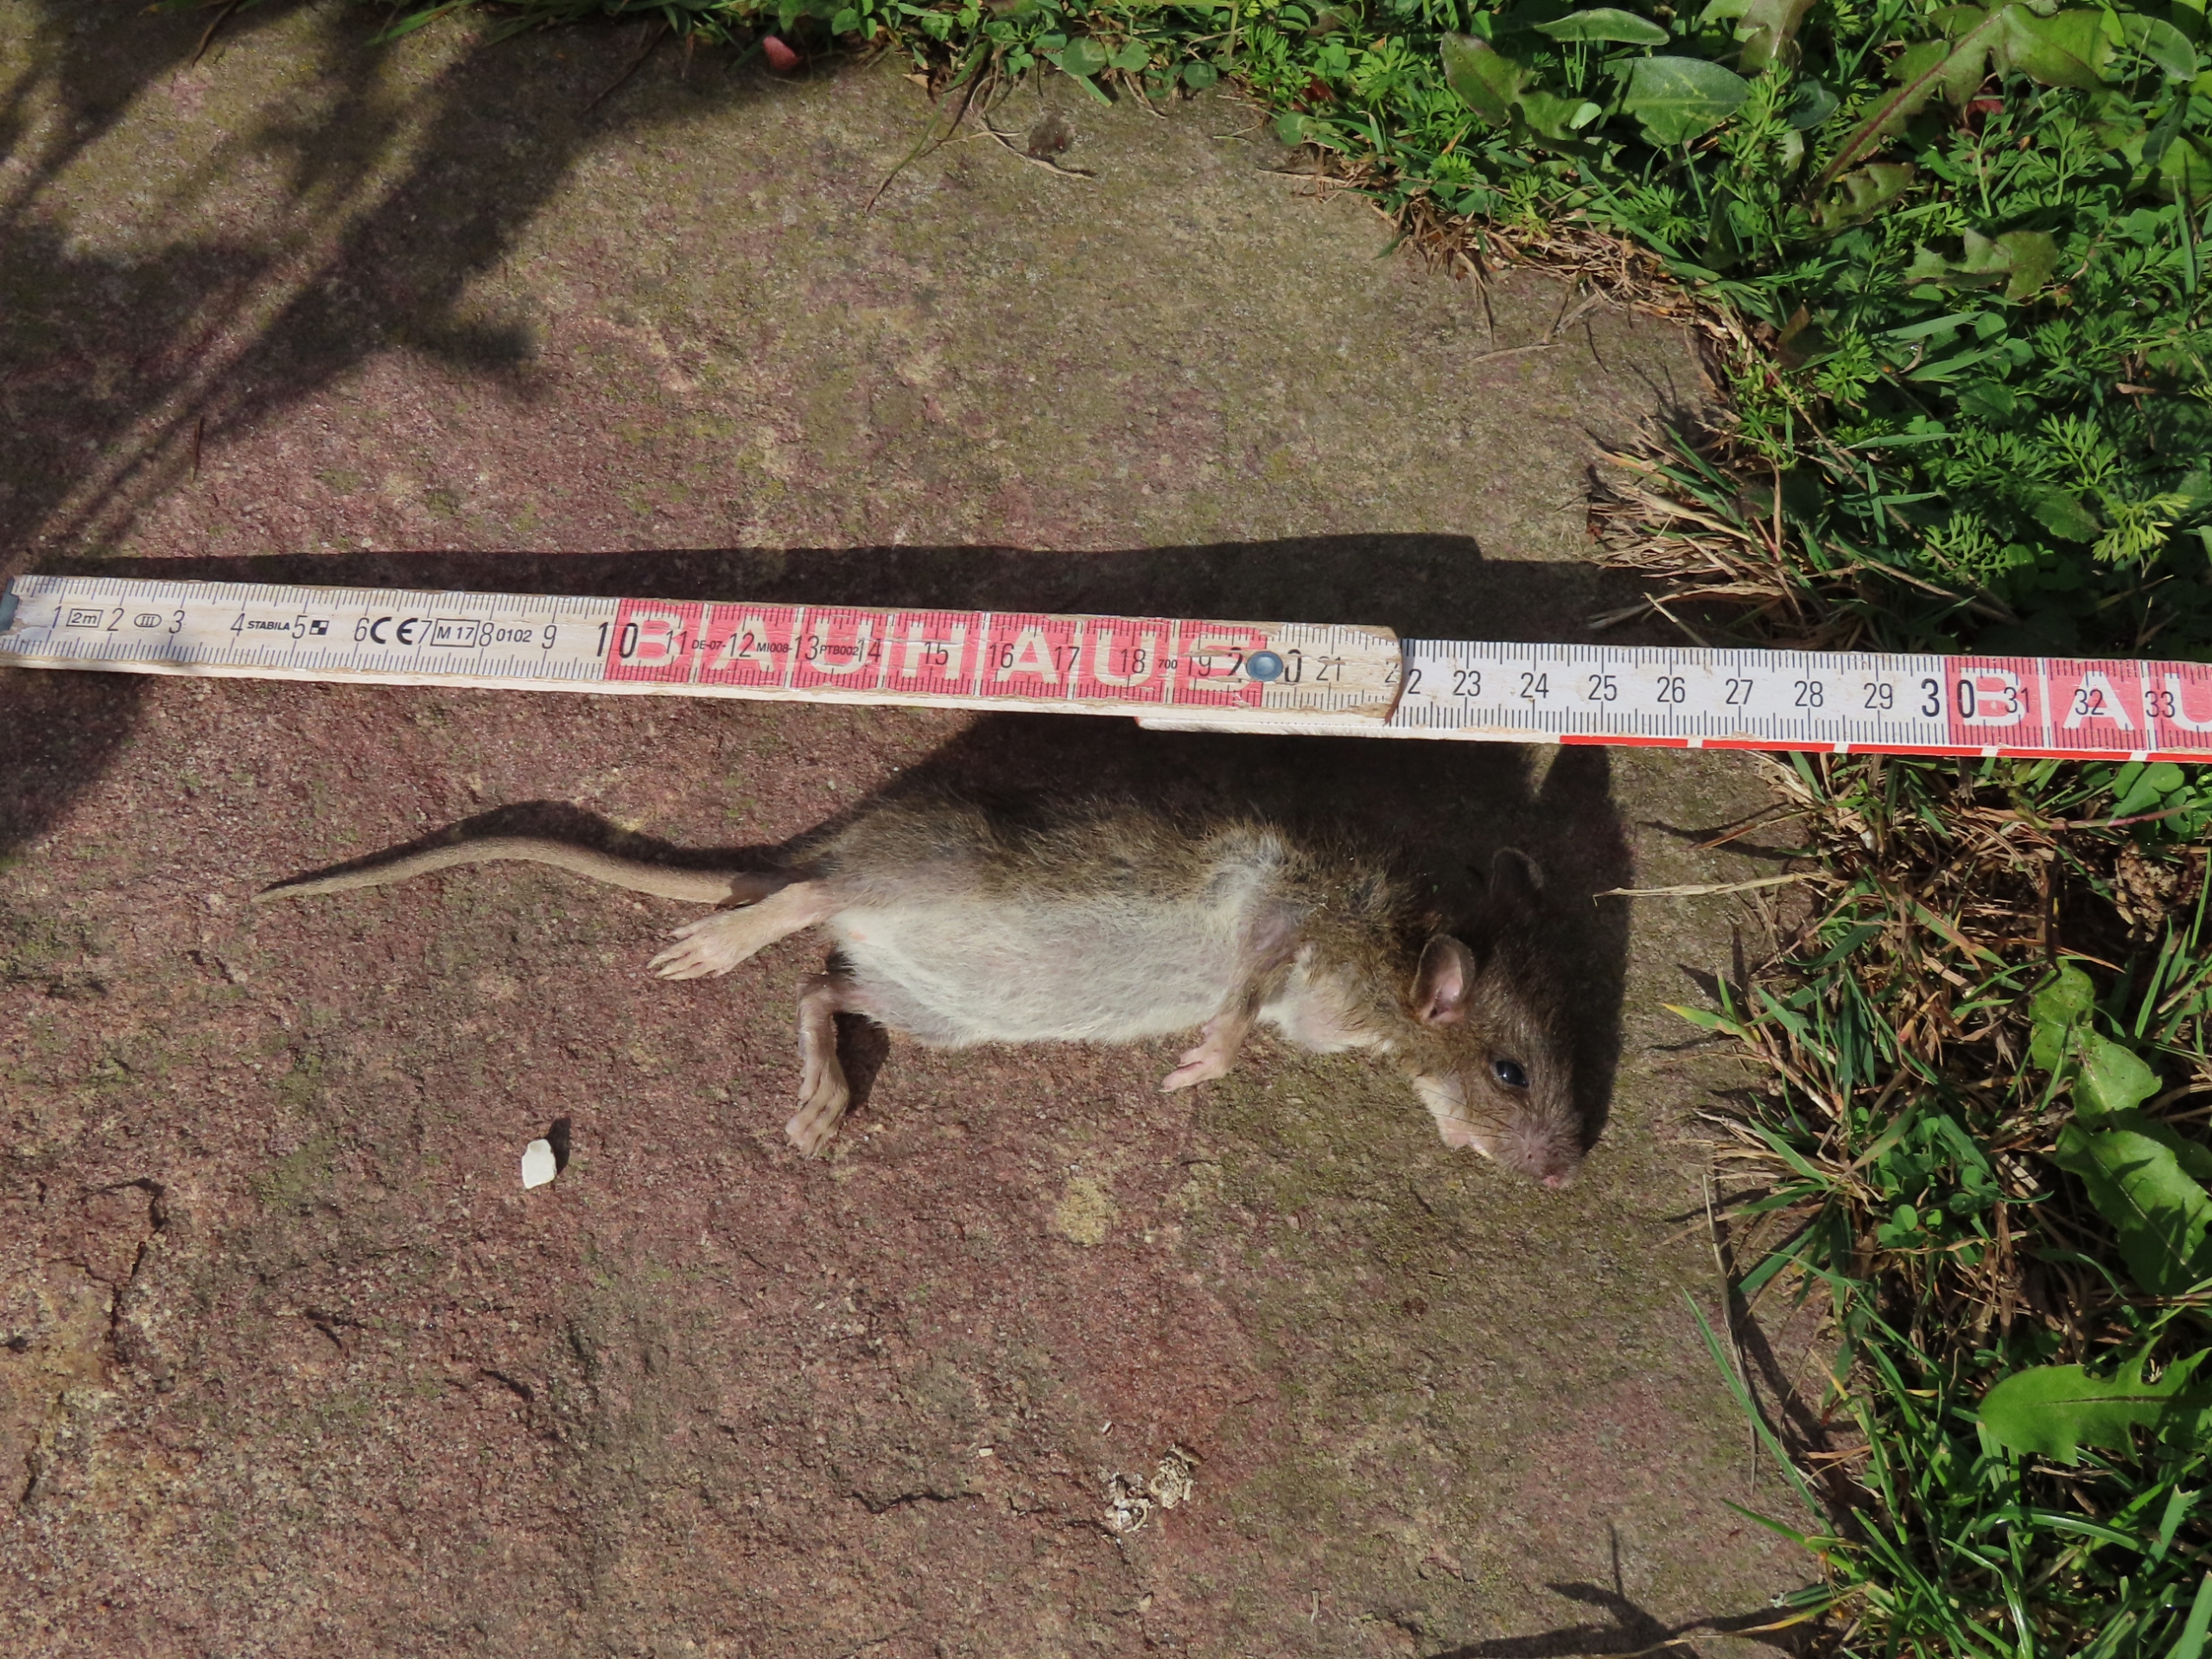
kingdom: Animalia
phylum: Chordata
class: Mammalia
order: Rodentia
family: Muridae
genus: Rattus
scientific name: Rattus norvegicus
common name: Brun rotte
